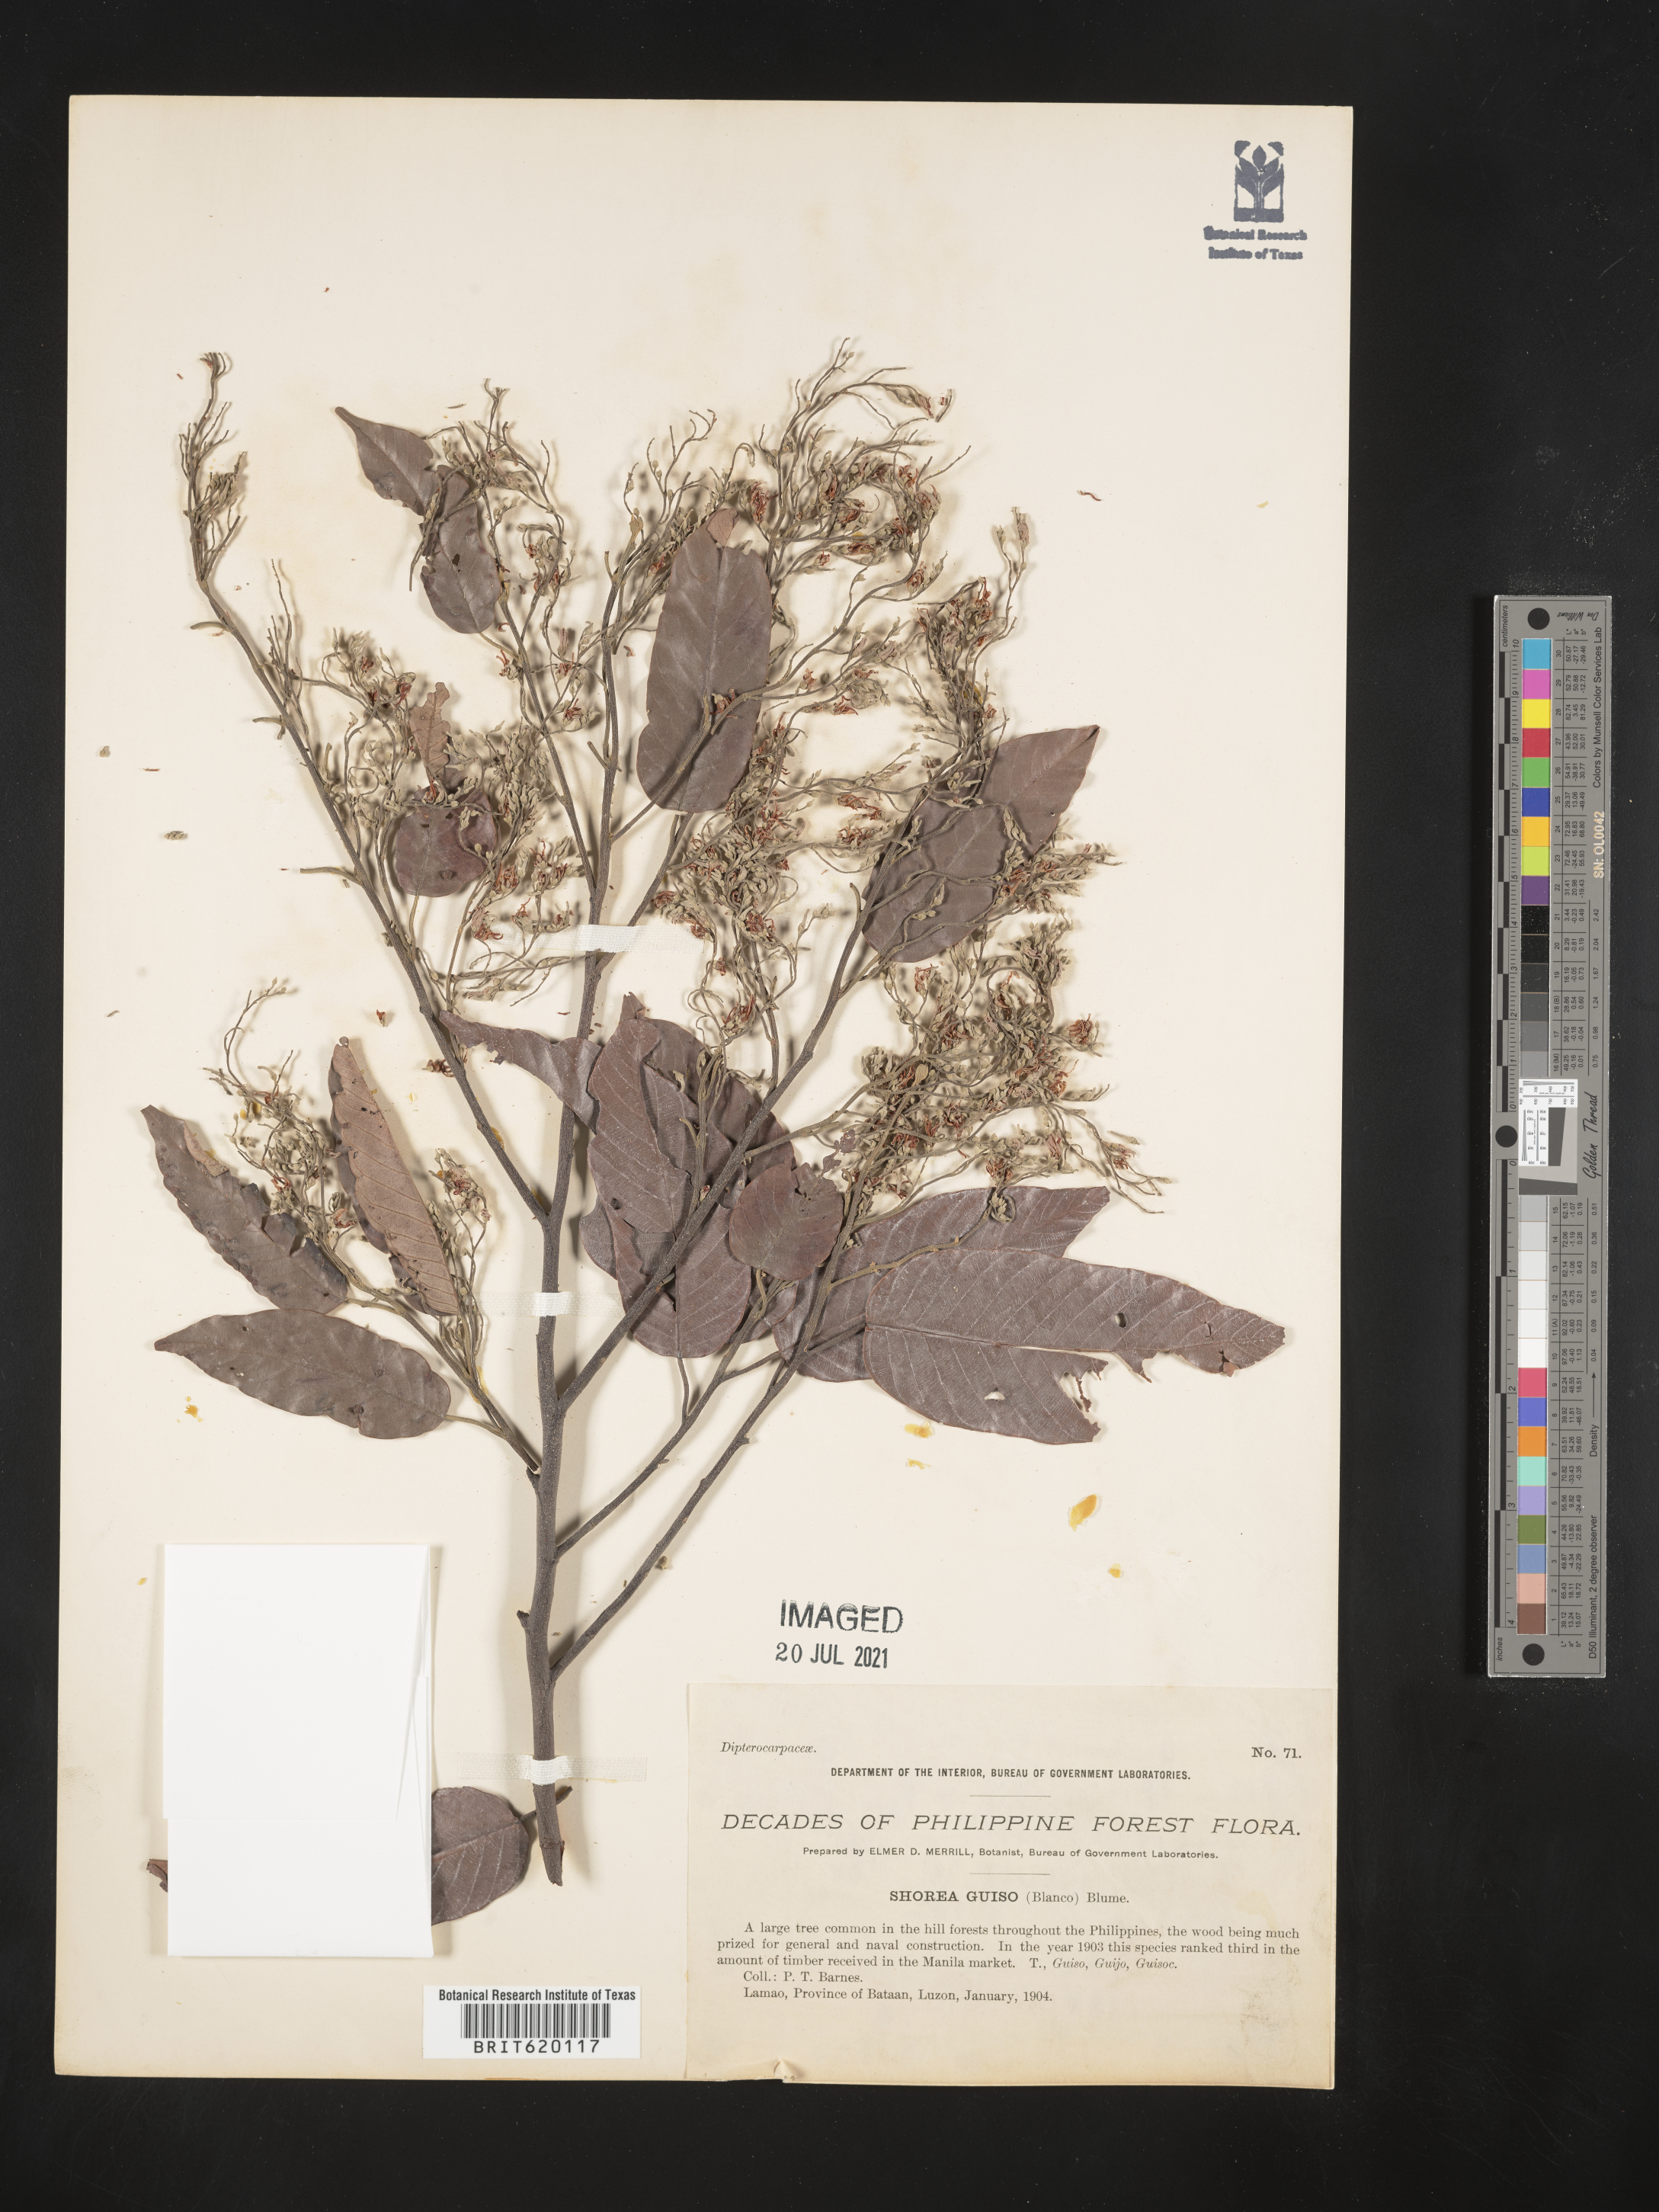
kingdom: Plantae
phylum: Tracheophyta
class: Magnoliopsida
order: Malvales
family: Dipterocarpaceae
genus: Shorea
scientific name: Shorea guiso
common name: Red balau
